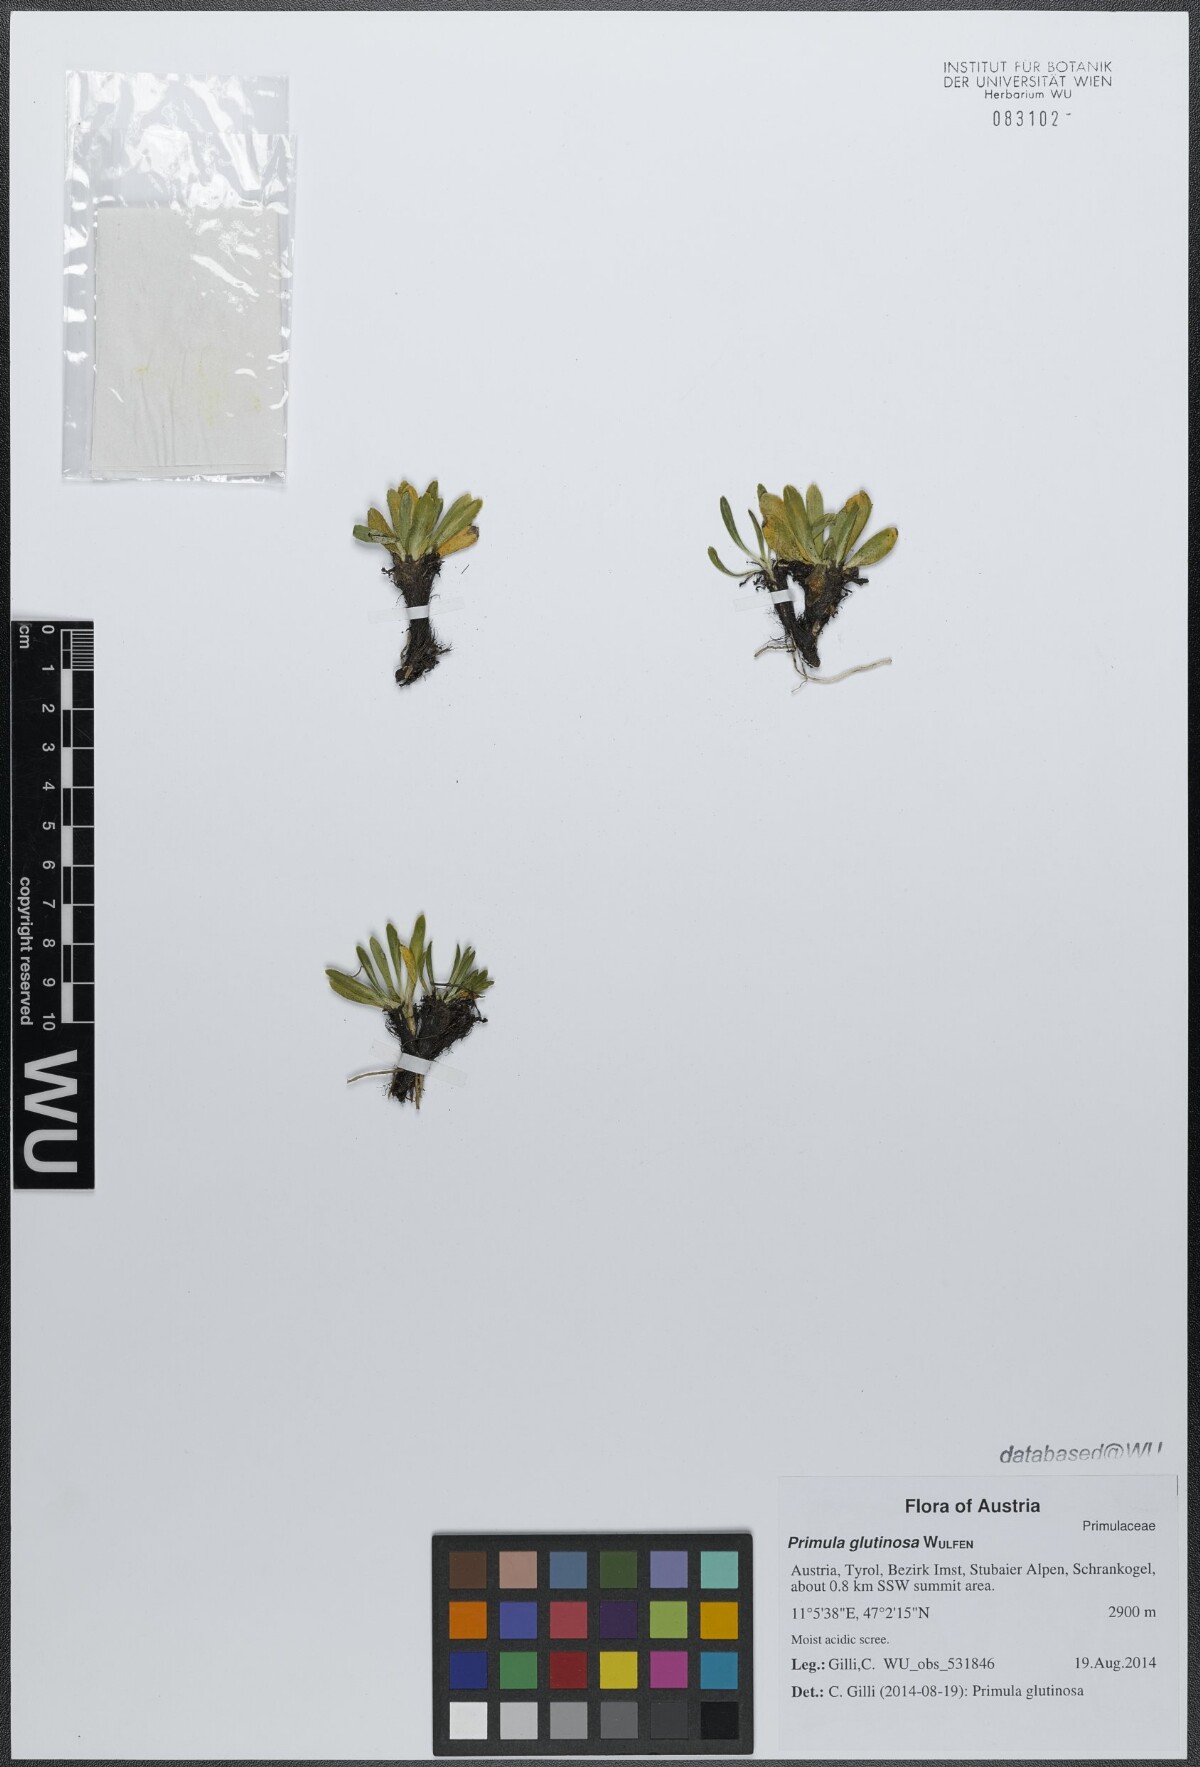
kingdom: Plantae
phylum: Tracheophyta
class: Magnoliopsida
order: Ericales
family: Primulaceae
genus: Primula
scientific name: Primula glutinosa
